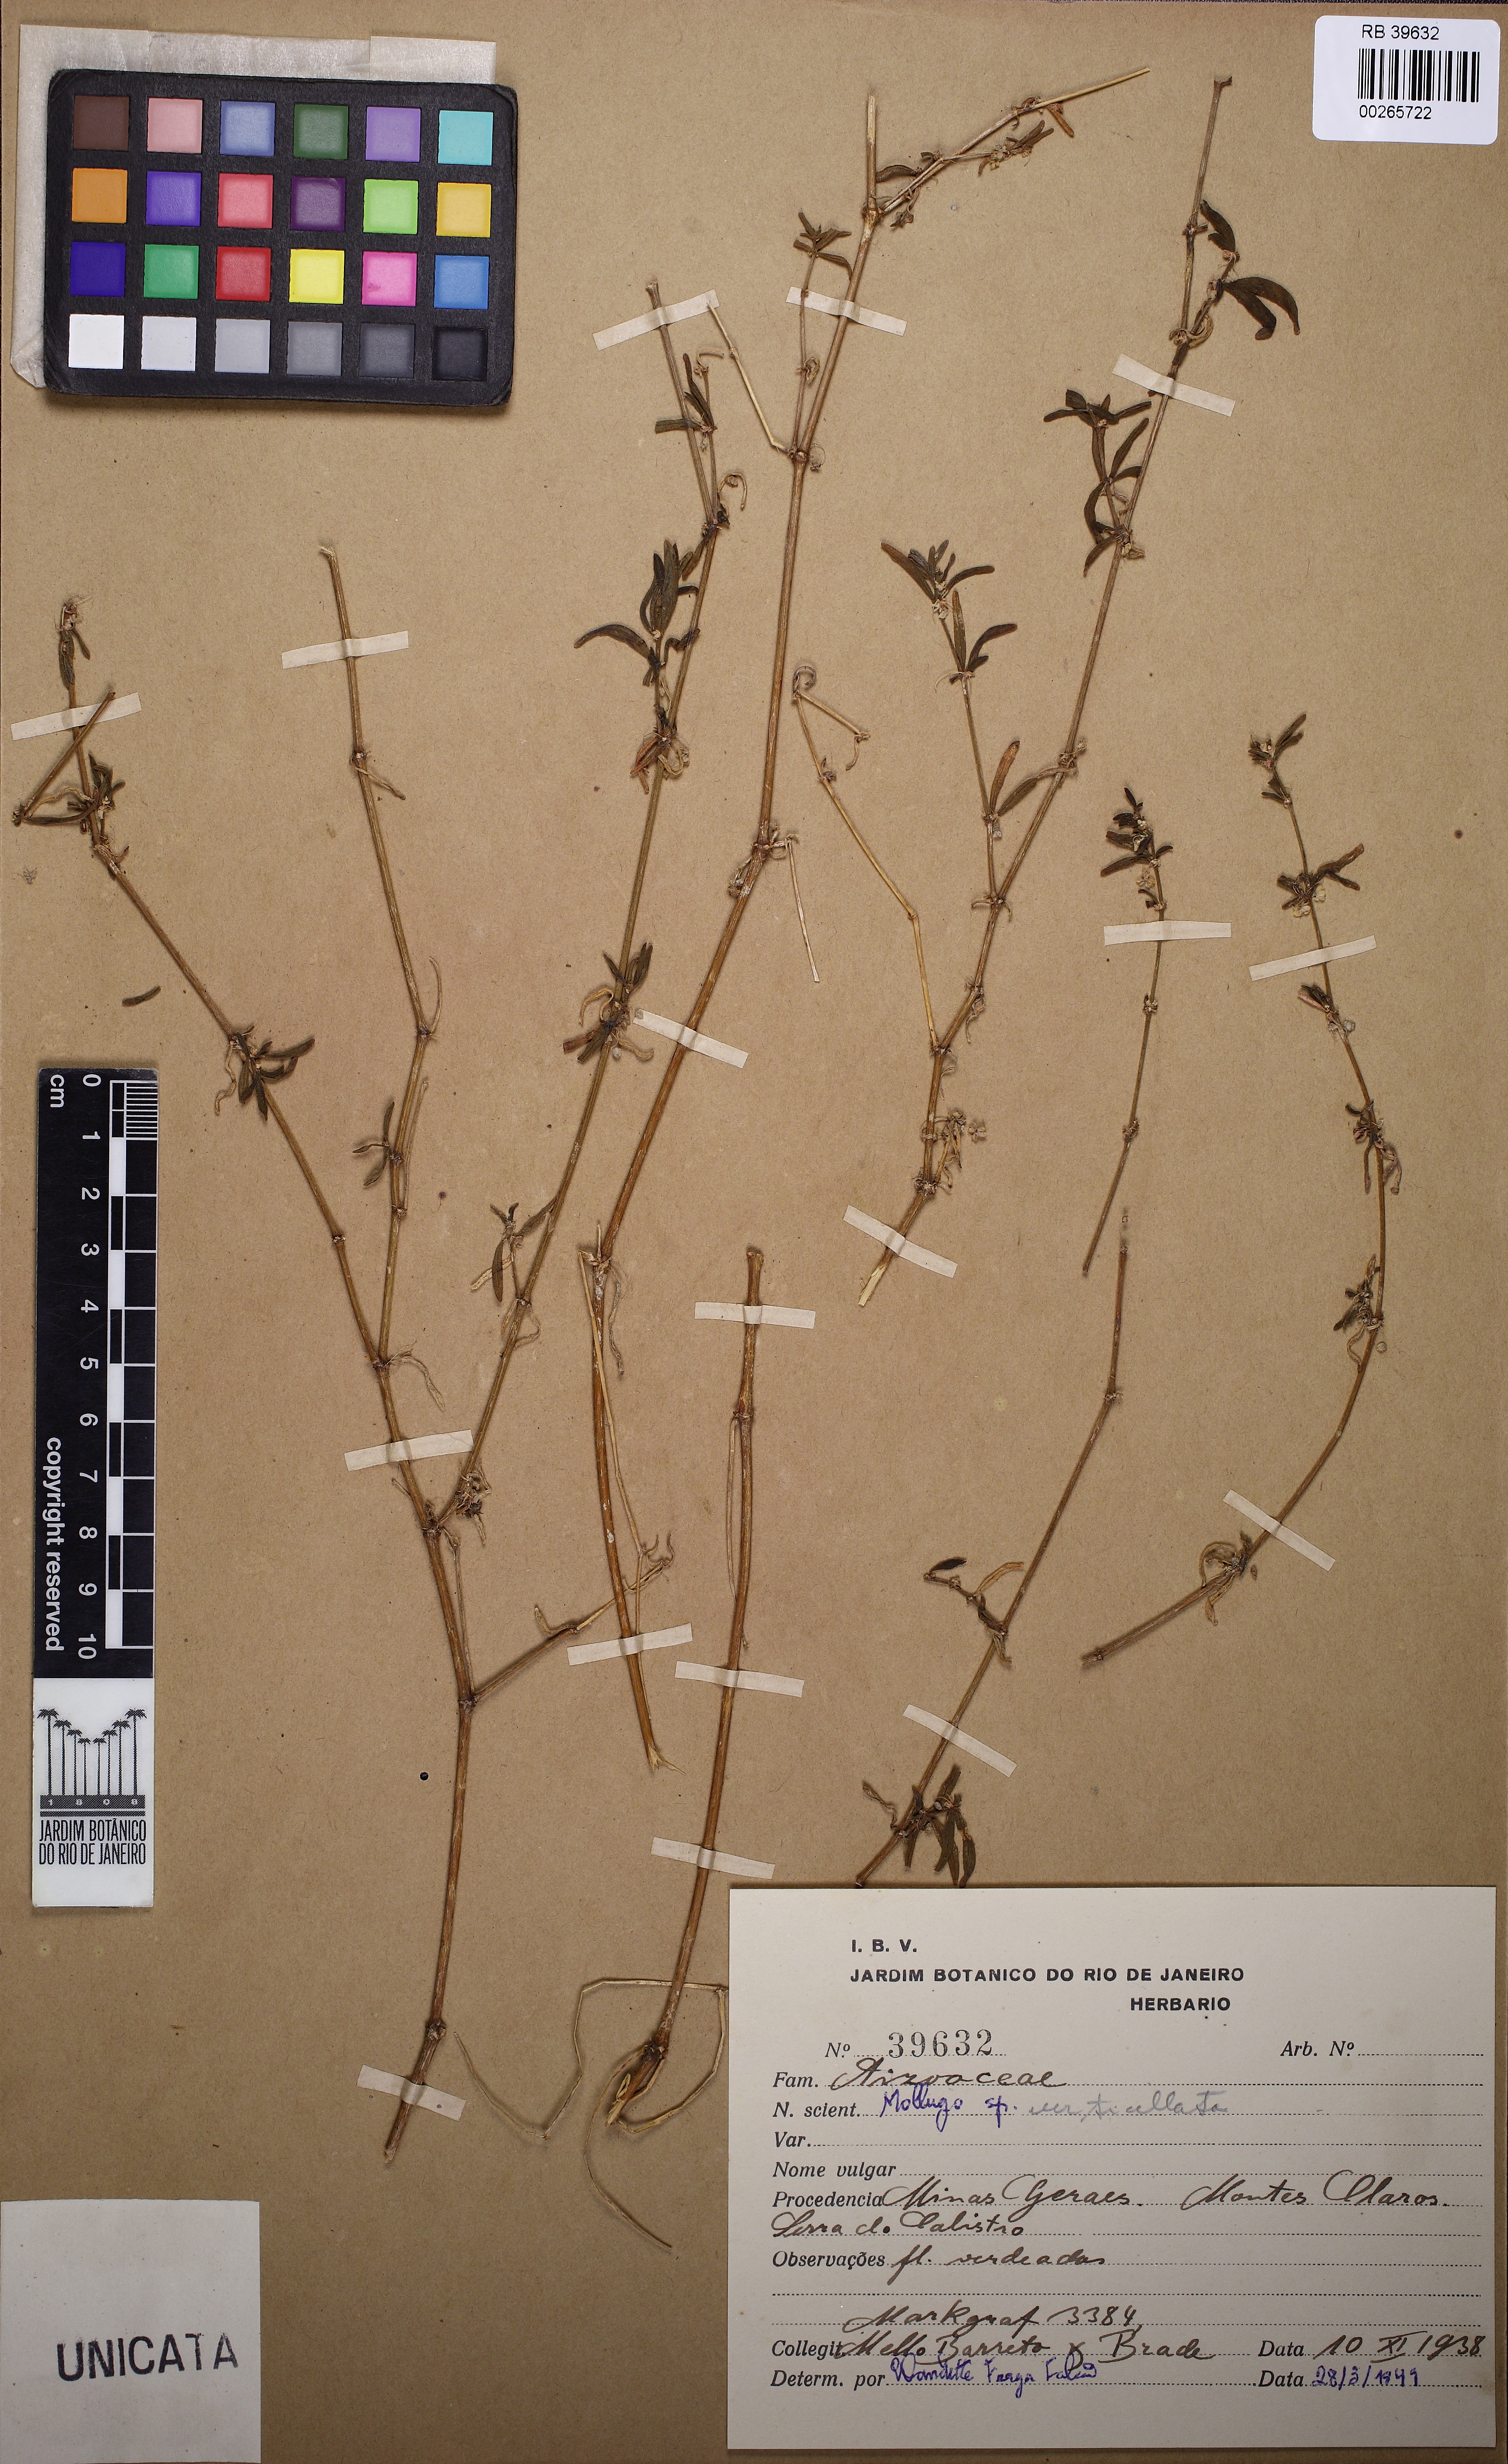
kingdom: Plantae
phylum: Tracheophyta
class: Magnoliopsida
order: Caryophyllales
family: Molluginaceae
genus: Mollugo
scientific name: Mollugo verticillata
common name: Green carpetweed
